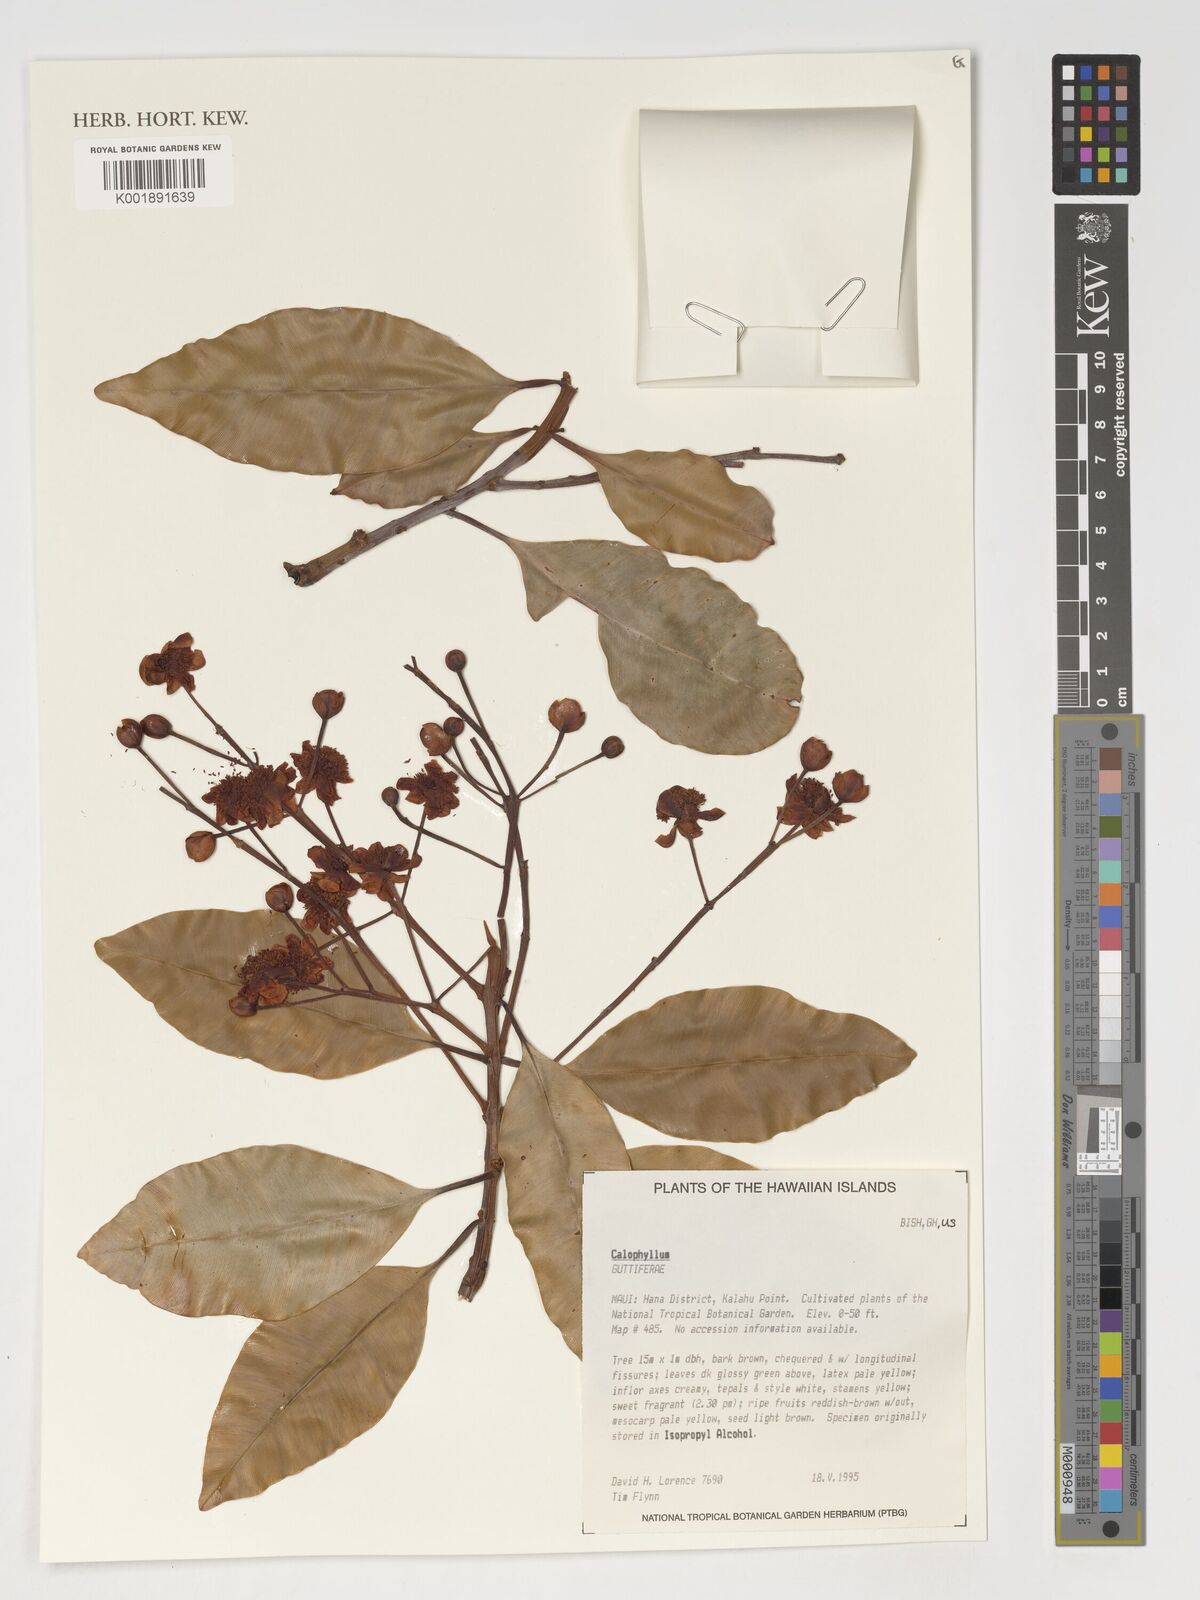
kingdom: Plantae
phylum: Tracheophyta
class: Magnoliopsida
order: Malpighiales
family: Calophyllaceae
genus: Calophyllum
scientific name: Calophyllum
